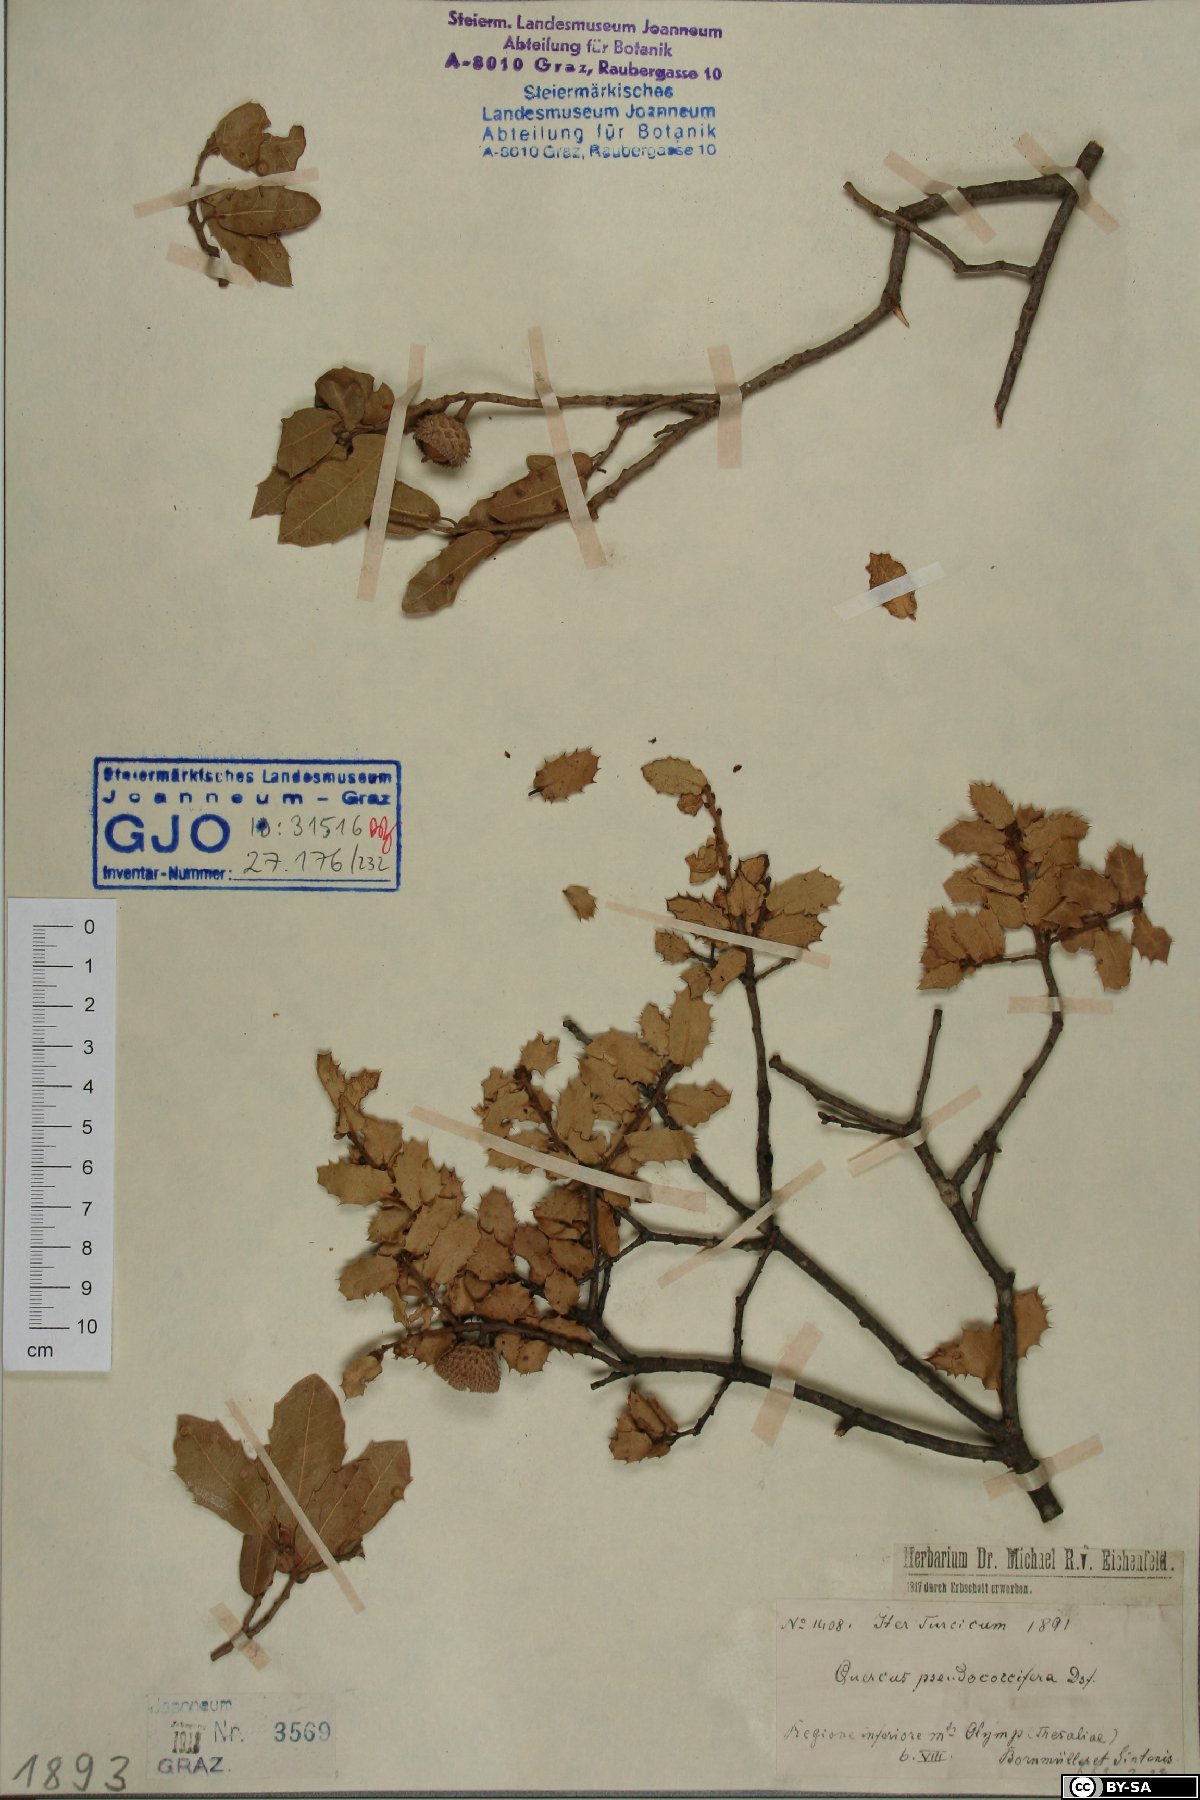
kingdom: Plantae
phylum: Tracheophyta
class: Magnoliopsida
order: Fagales
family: Fagaceae
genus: Quercus
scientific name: Quercus pseudococcifera
